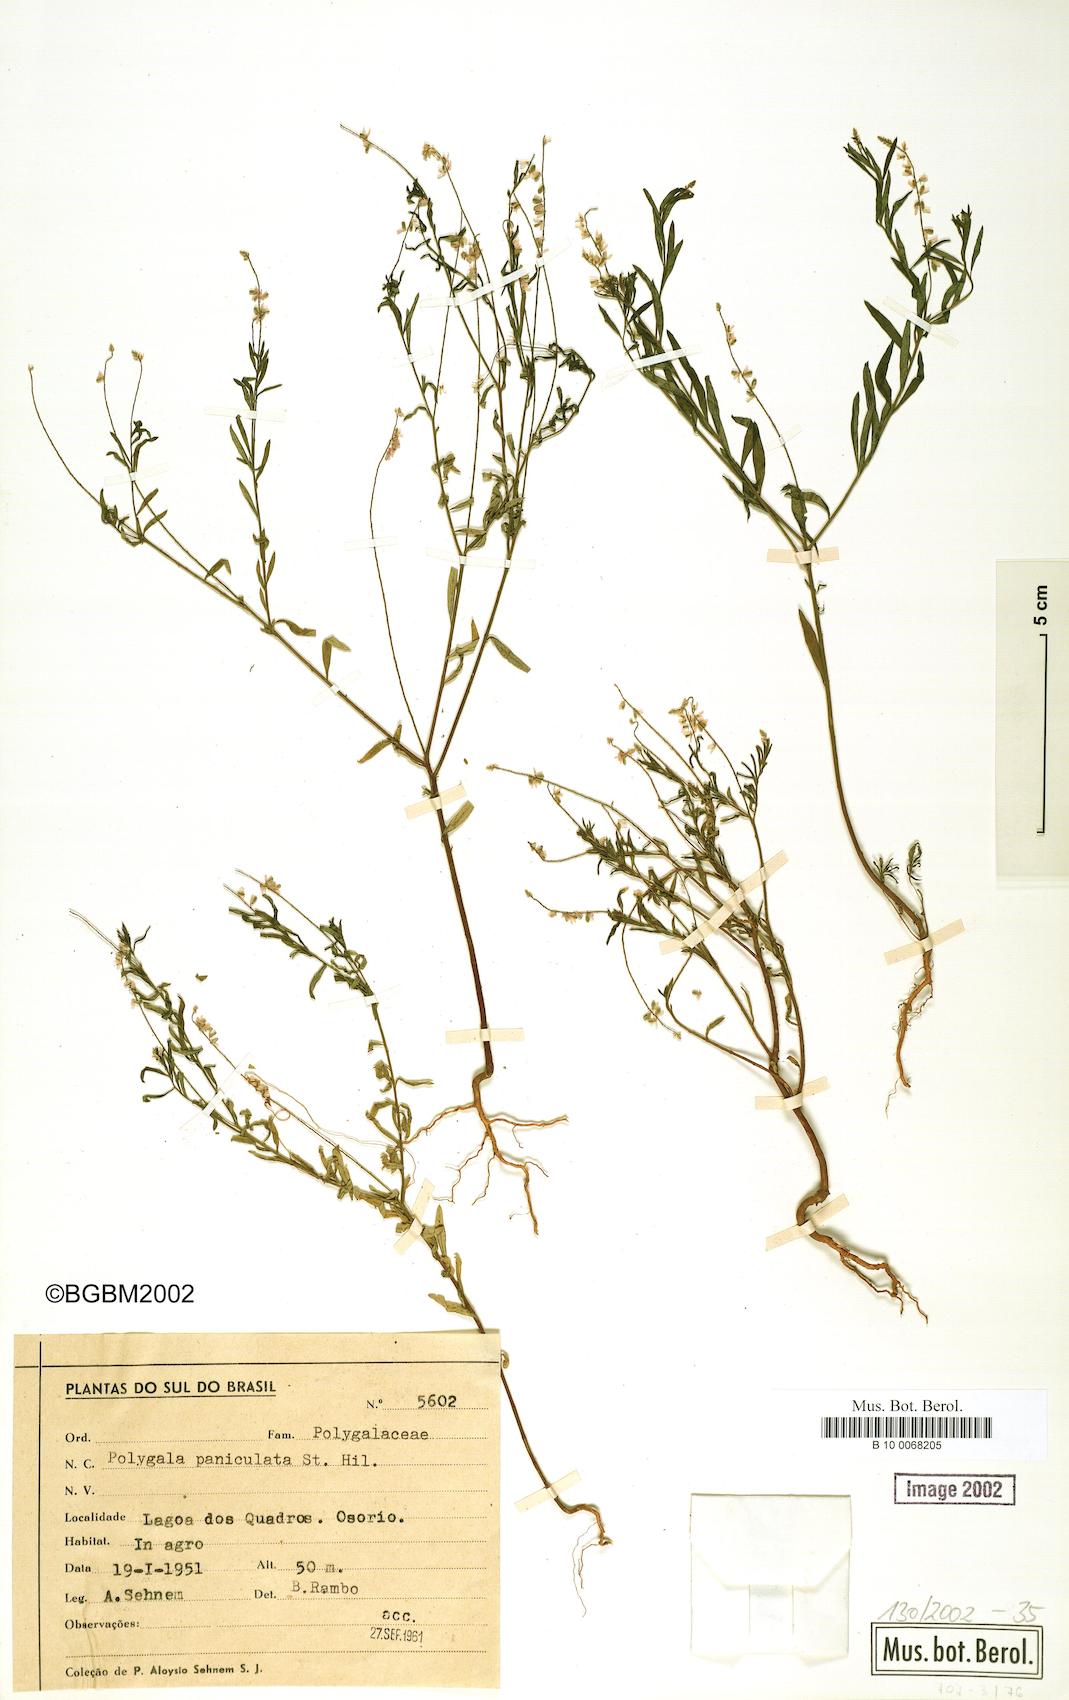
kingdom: Plantae
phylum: Tracheophyta
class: Magnoliopsida
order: Fabales
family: Polygalaceae
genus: Polygala
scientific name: Polygala paniculata
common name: Orosne
